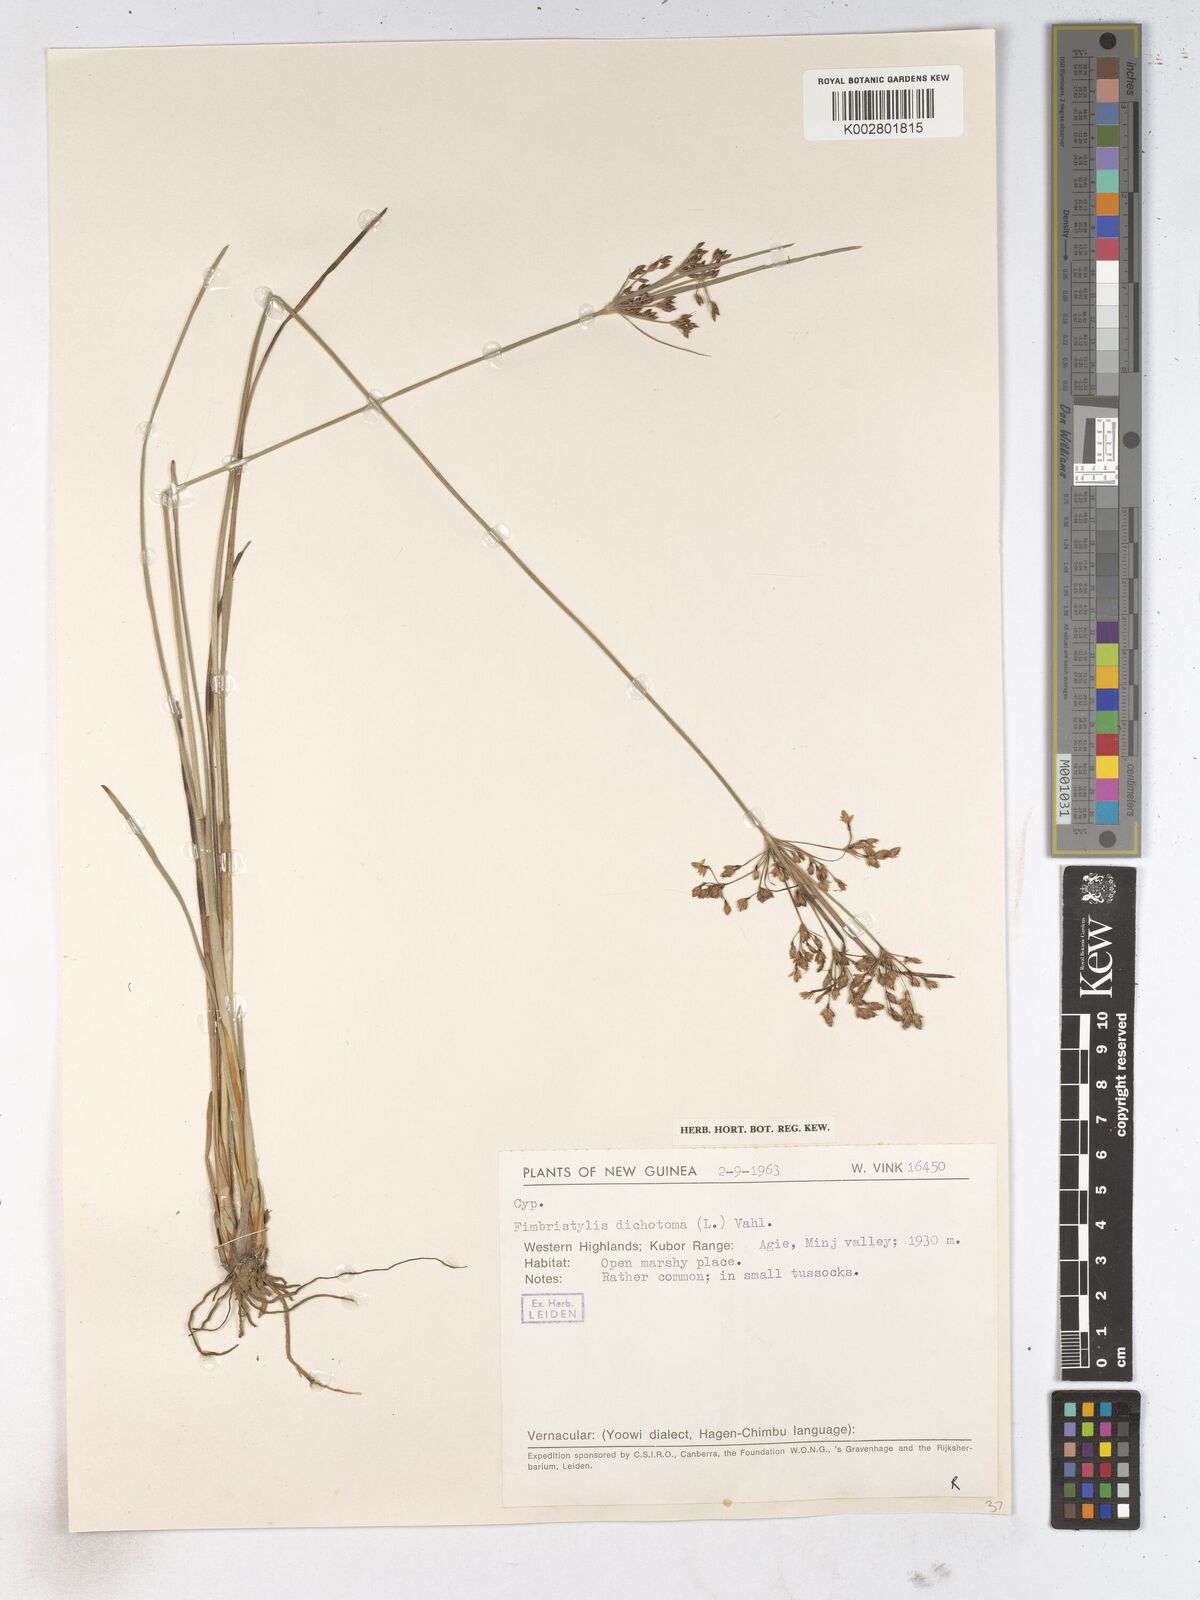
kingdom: Plantae
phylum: Tracheophyta
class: Liliopsida
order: Poales
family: Cyperaceae
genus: Fimbristylis
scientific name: Fimbristylis dichotoma
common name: Forked fimbry
